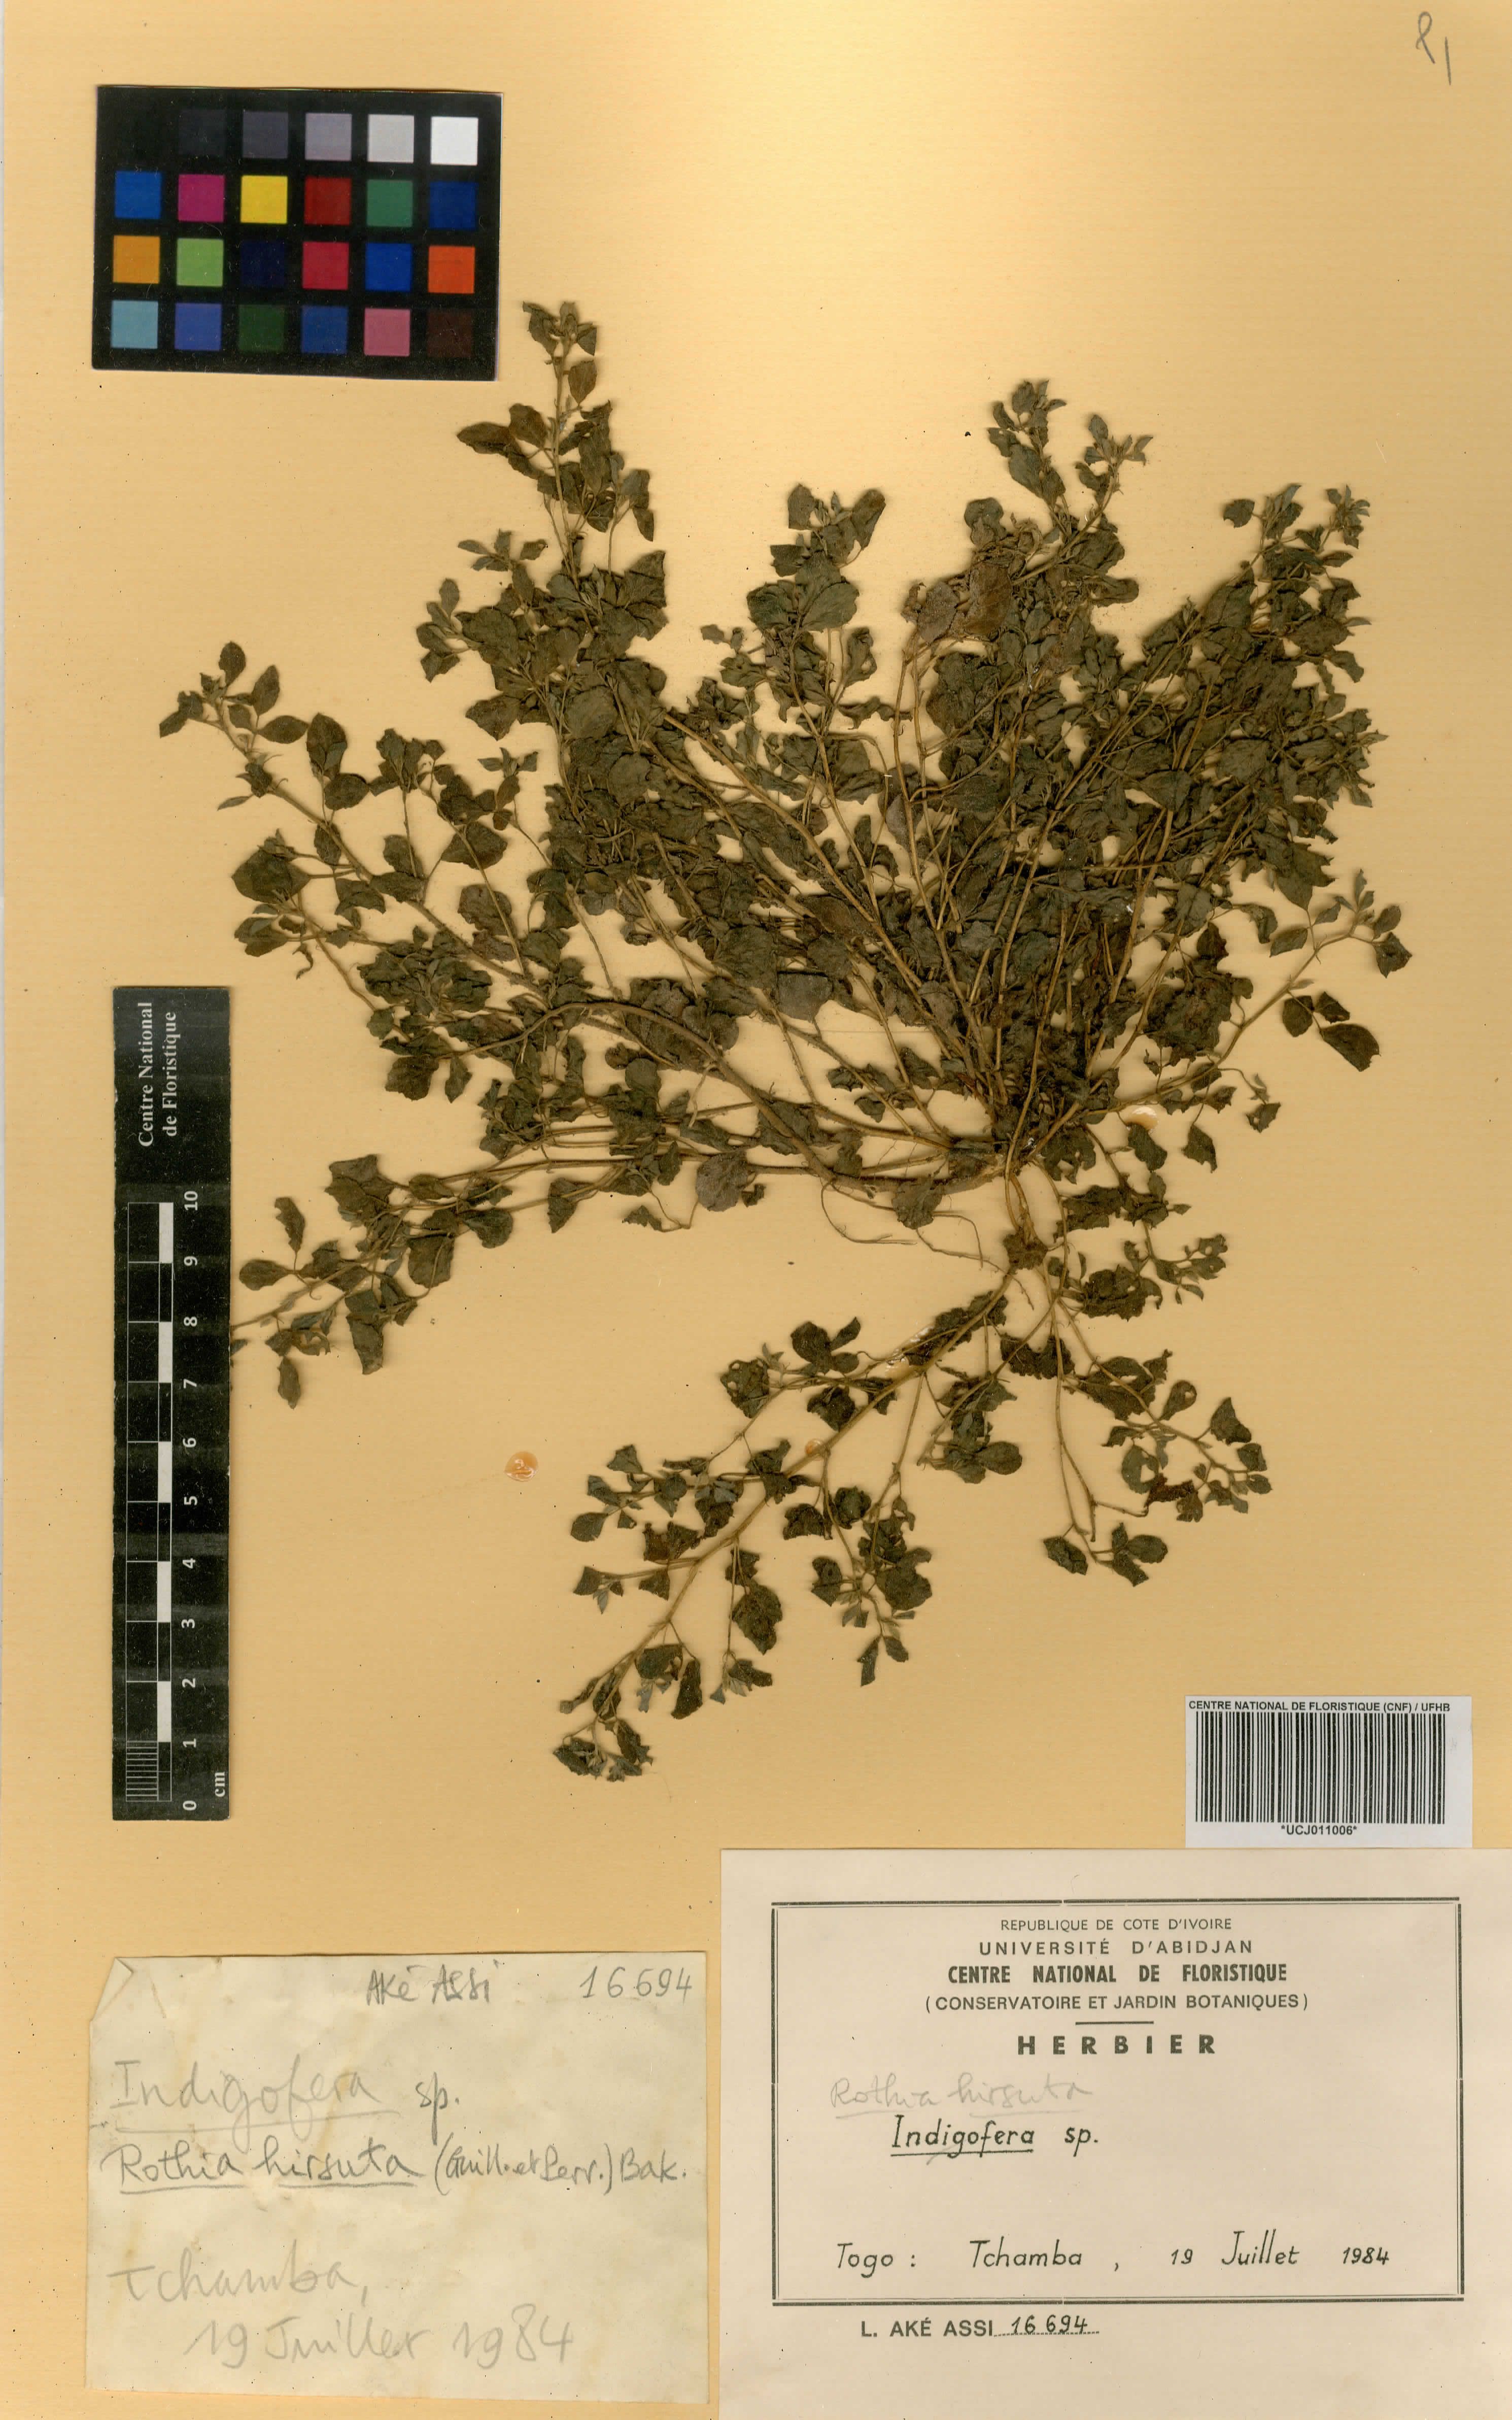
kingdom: Plantae
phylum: Tracheophyta
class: Magnoliopsida
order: Fabales
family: Fabaceae
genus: Rothia
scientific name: Rothia hirsuta
